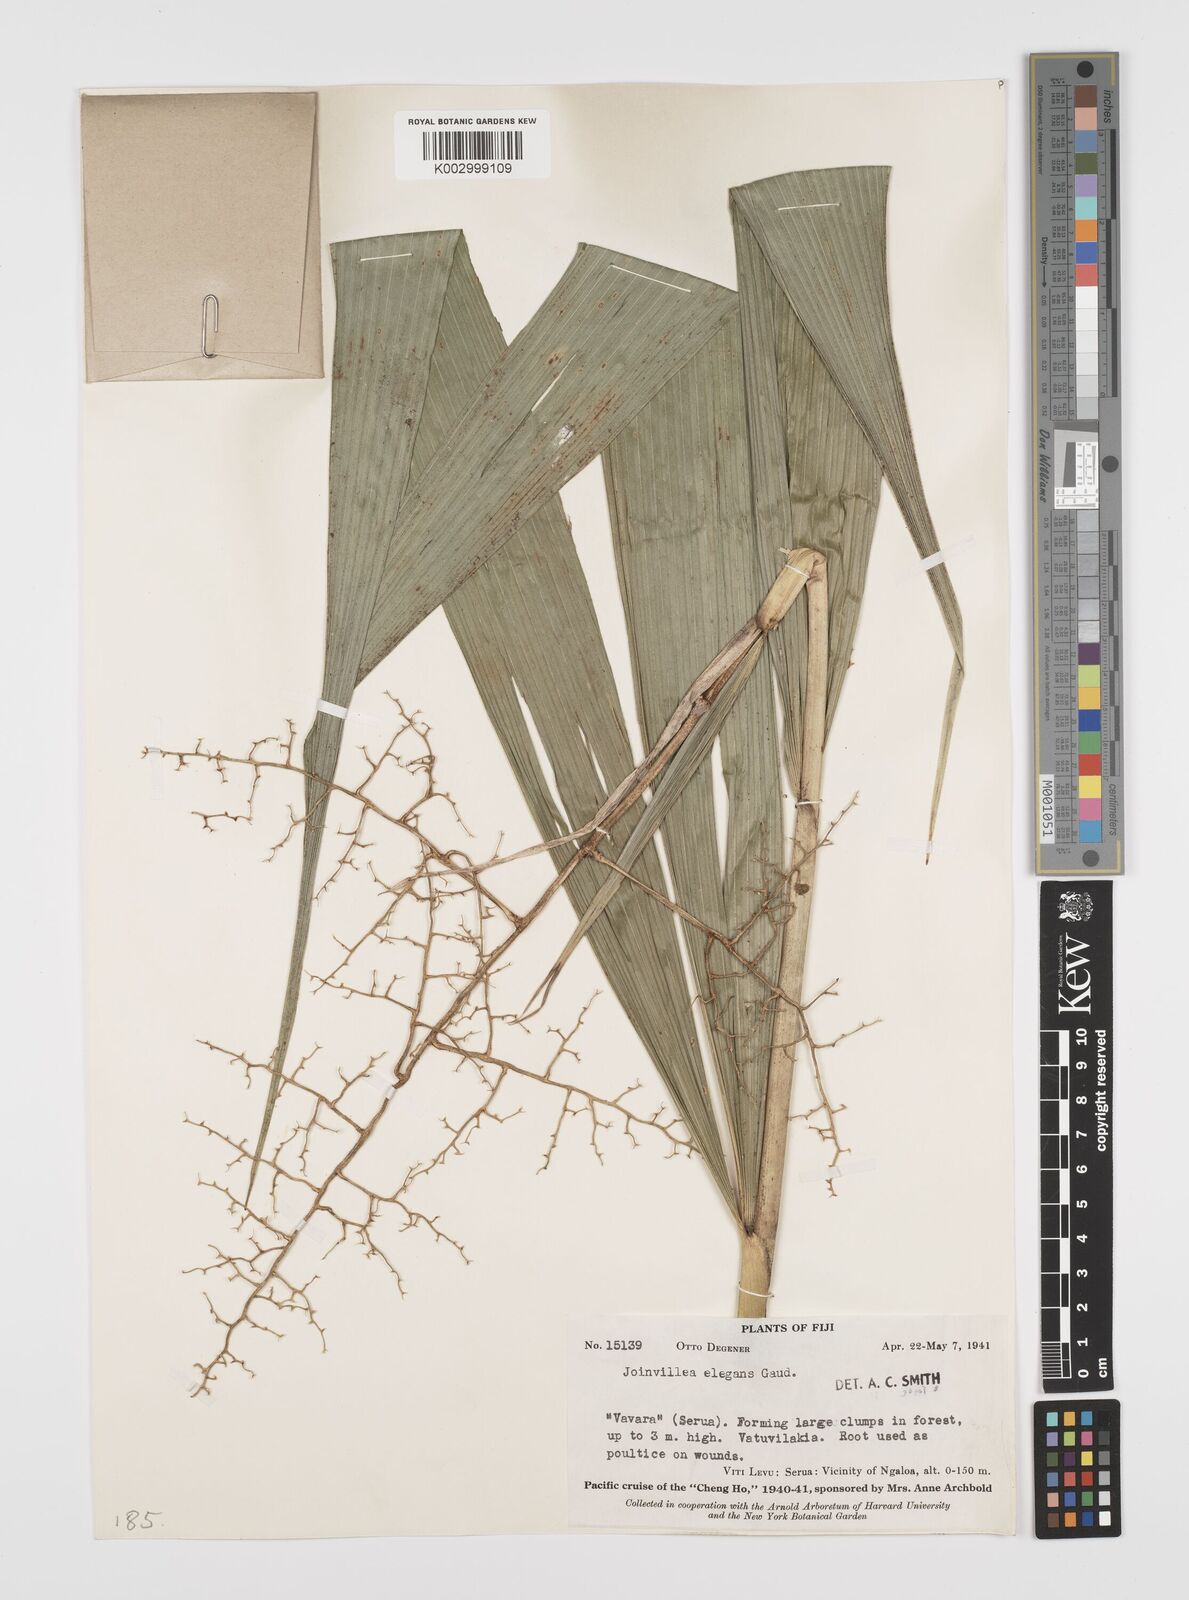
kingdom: Plantae
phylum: Tracheophyta
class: Liliopsida
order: Poales
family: Joinvilleaceae
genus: Joinvillea
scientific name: Joinvillea plicata
